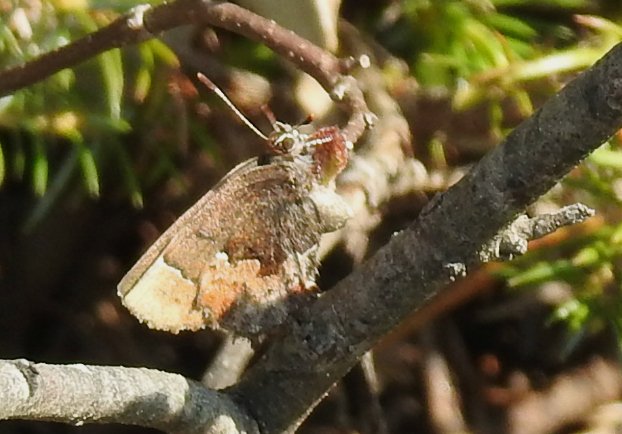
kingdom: Animalia
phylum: Arthropoda
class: Insecta
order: Lepidoptera
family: Lycaenidae
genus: Incisalia
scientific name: Incisalia henrici
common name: Henry's Elfin
